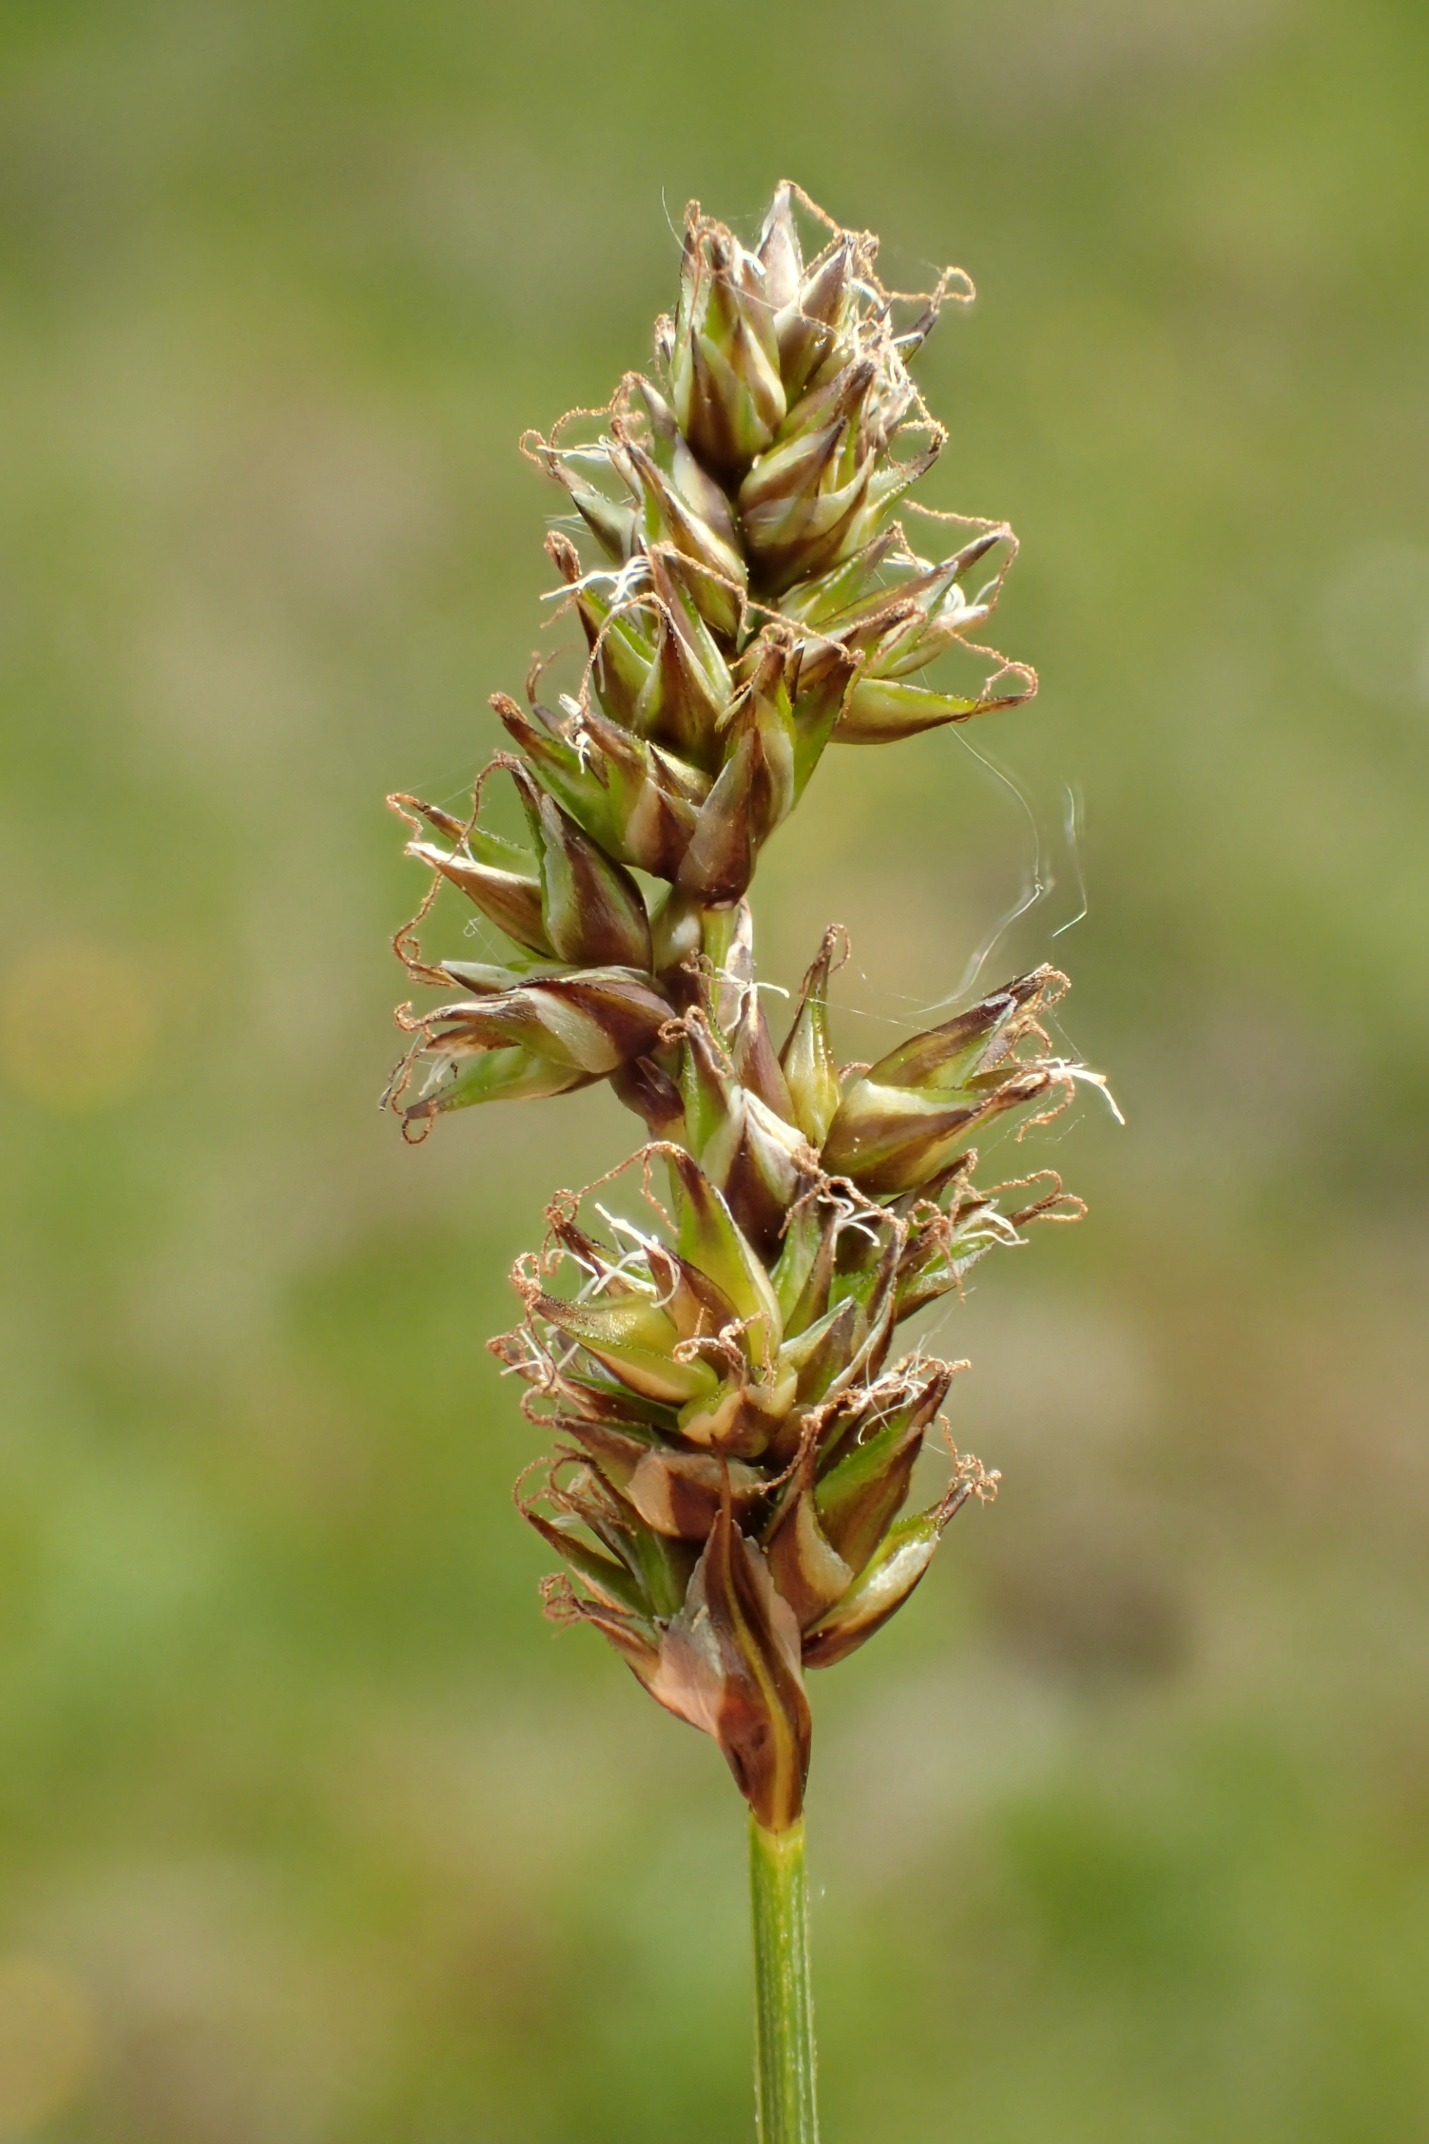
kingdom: Plantae
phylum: Tracheophyta
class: Liliopsida
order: Poales
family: Cyperaceae
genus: Carex
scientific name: Carex diandra
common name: Trindstænglet star
